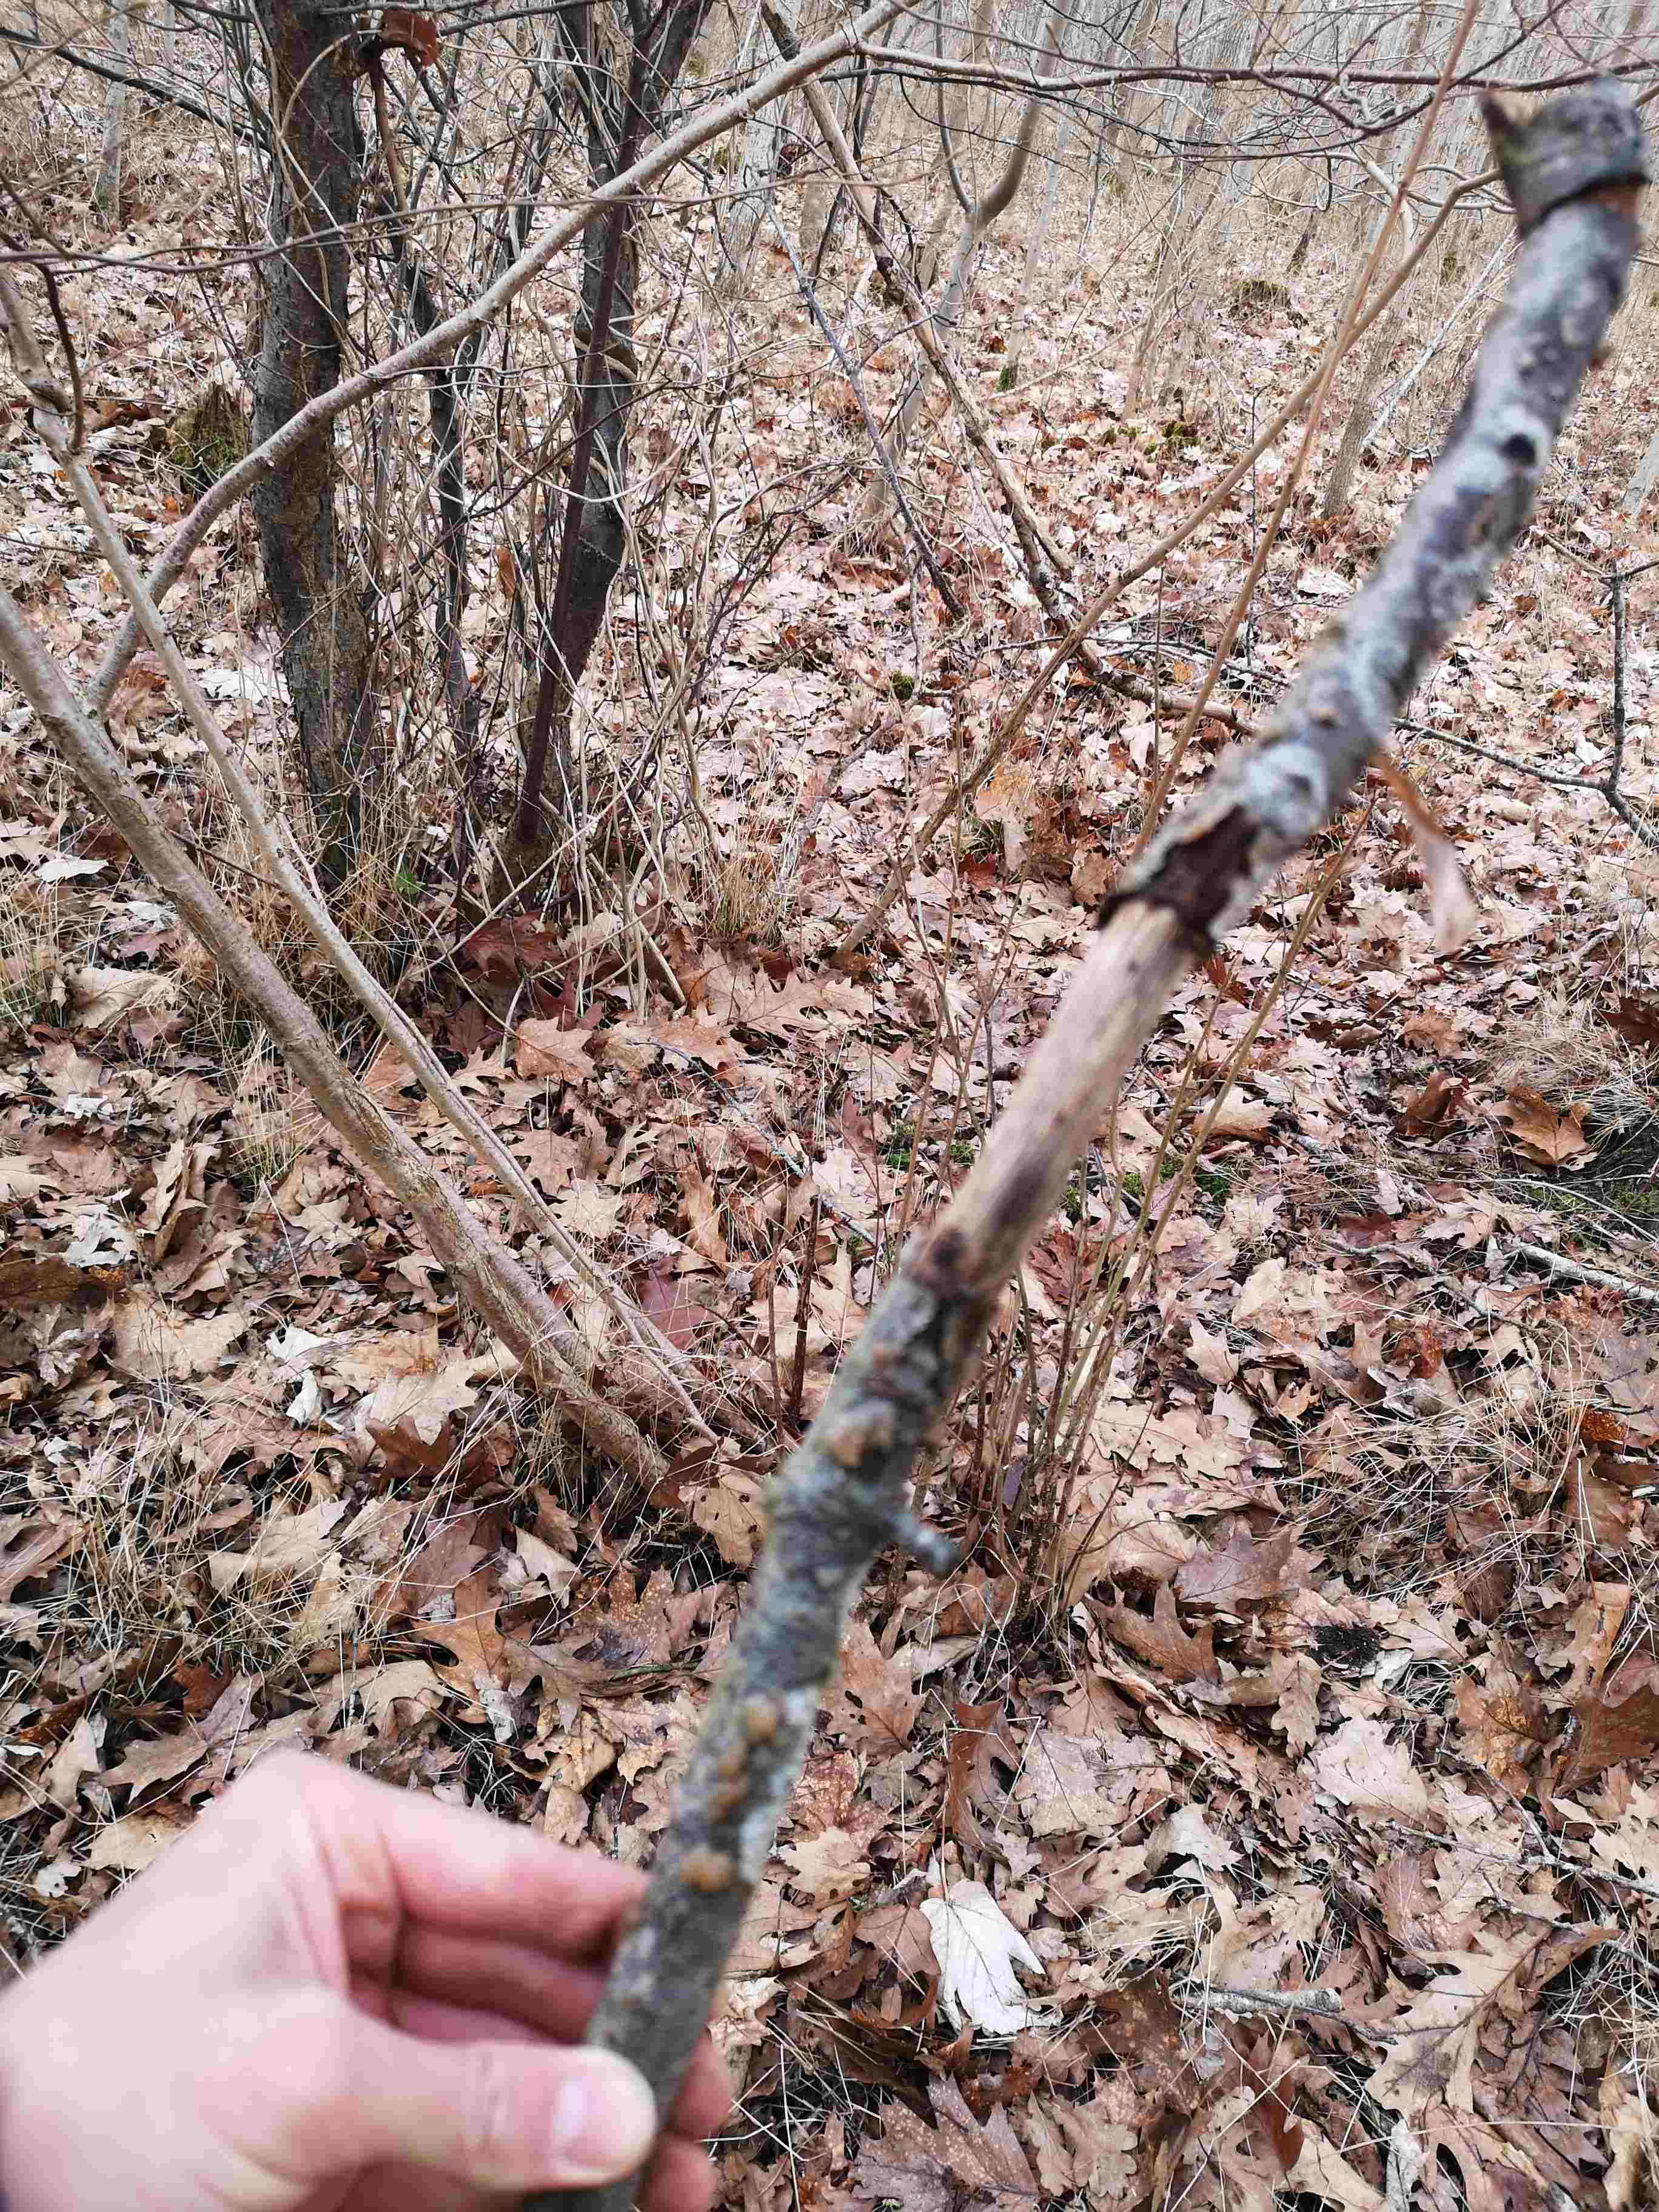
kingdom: Fungi
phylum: Basidiomycota
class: Agaricomycetes
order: Auriculariales
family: Hyaloriaceae
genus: Myxarium
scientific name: Myxarium nucleatum
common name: klar bævretop
